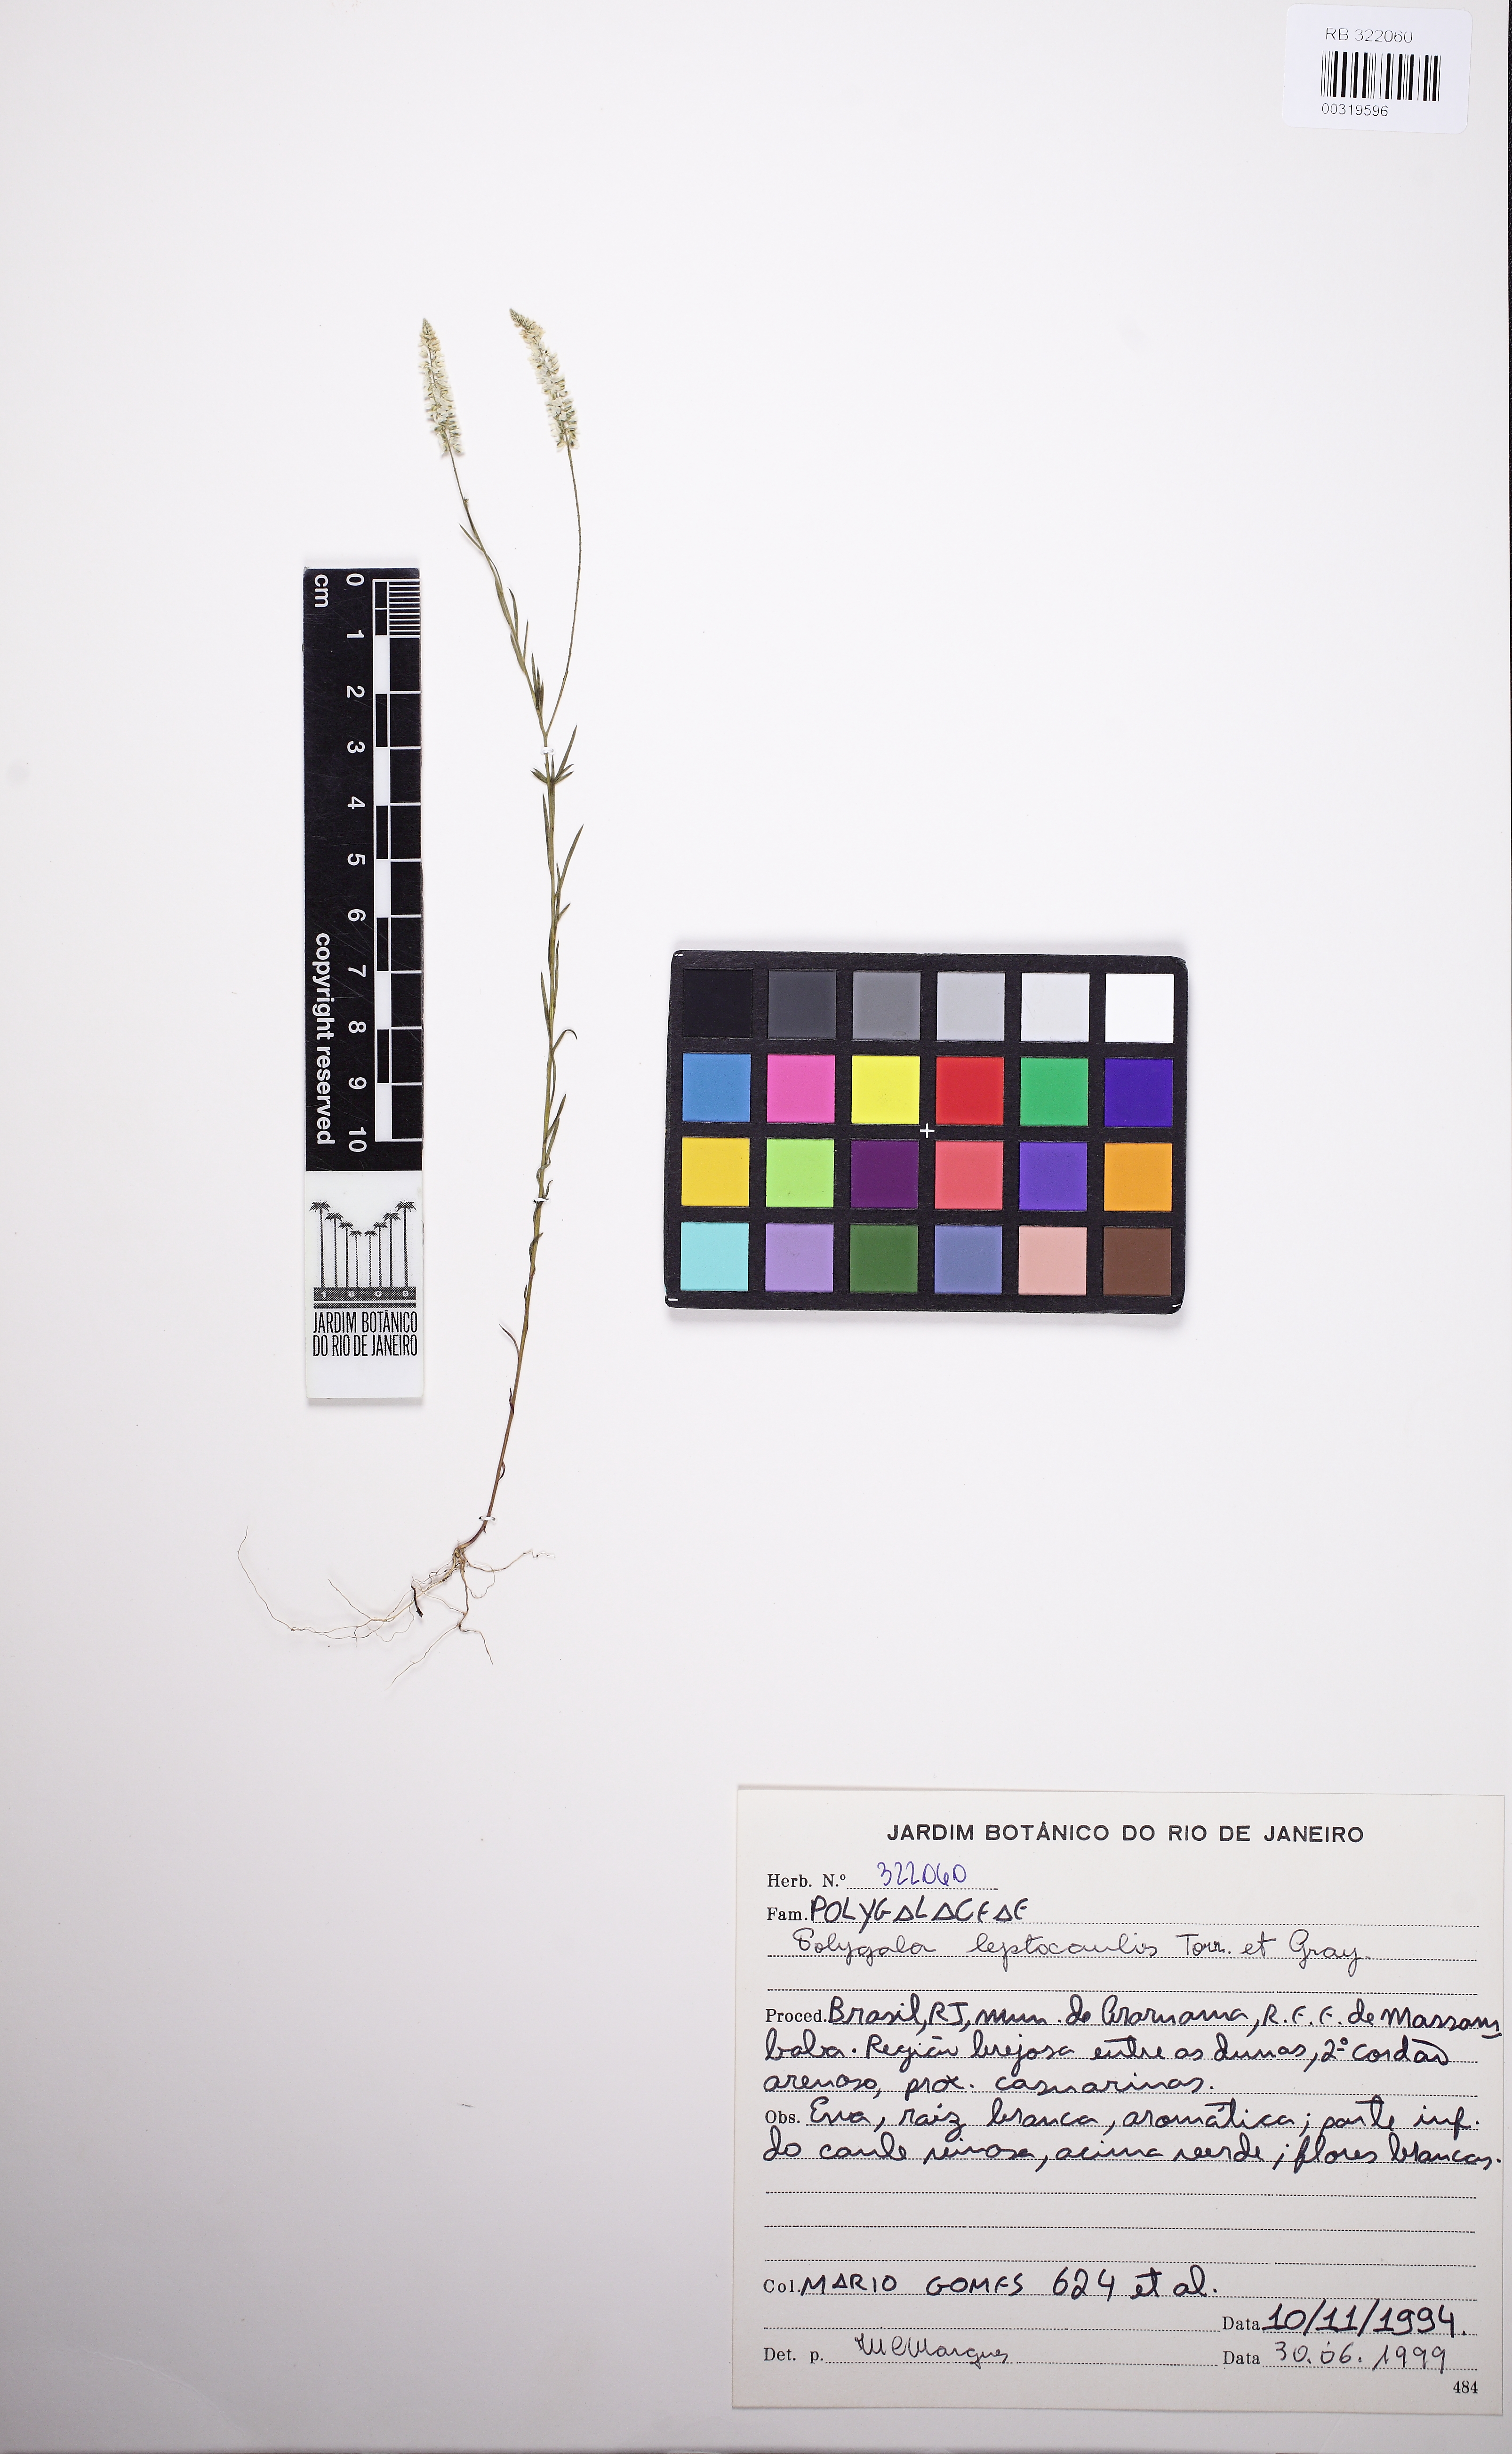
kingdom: Plantae
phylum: Tracheophyta
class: Magnoliopsida
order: Fabales
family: Polygalaceae
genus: Polygala
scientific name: Polygala tenella
